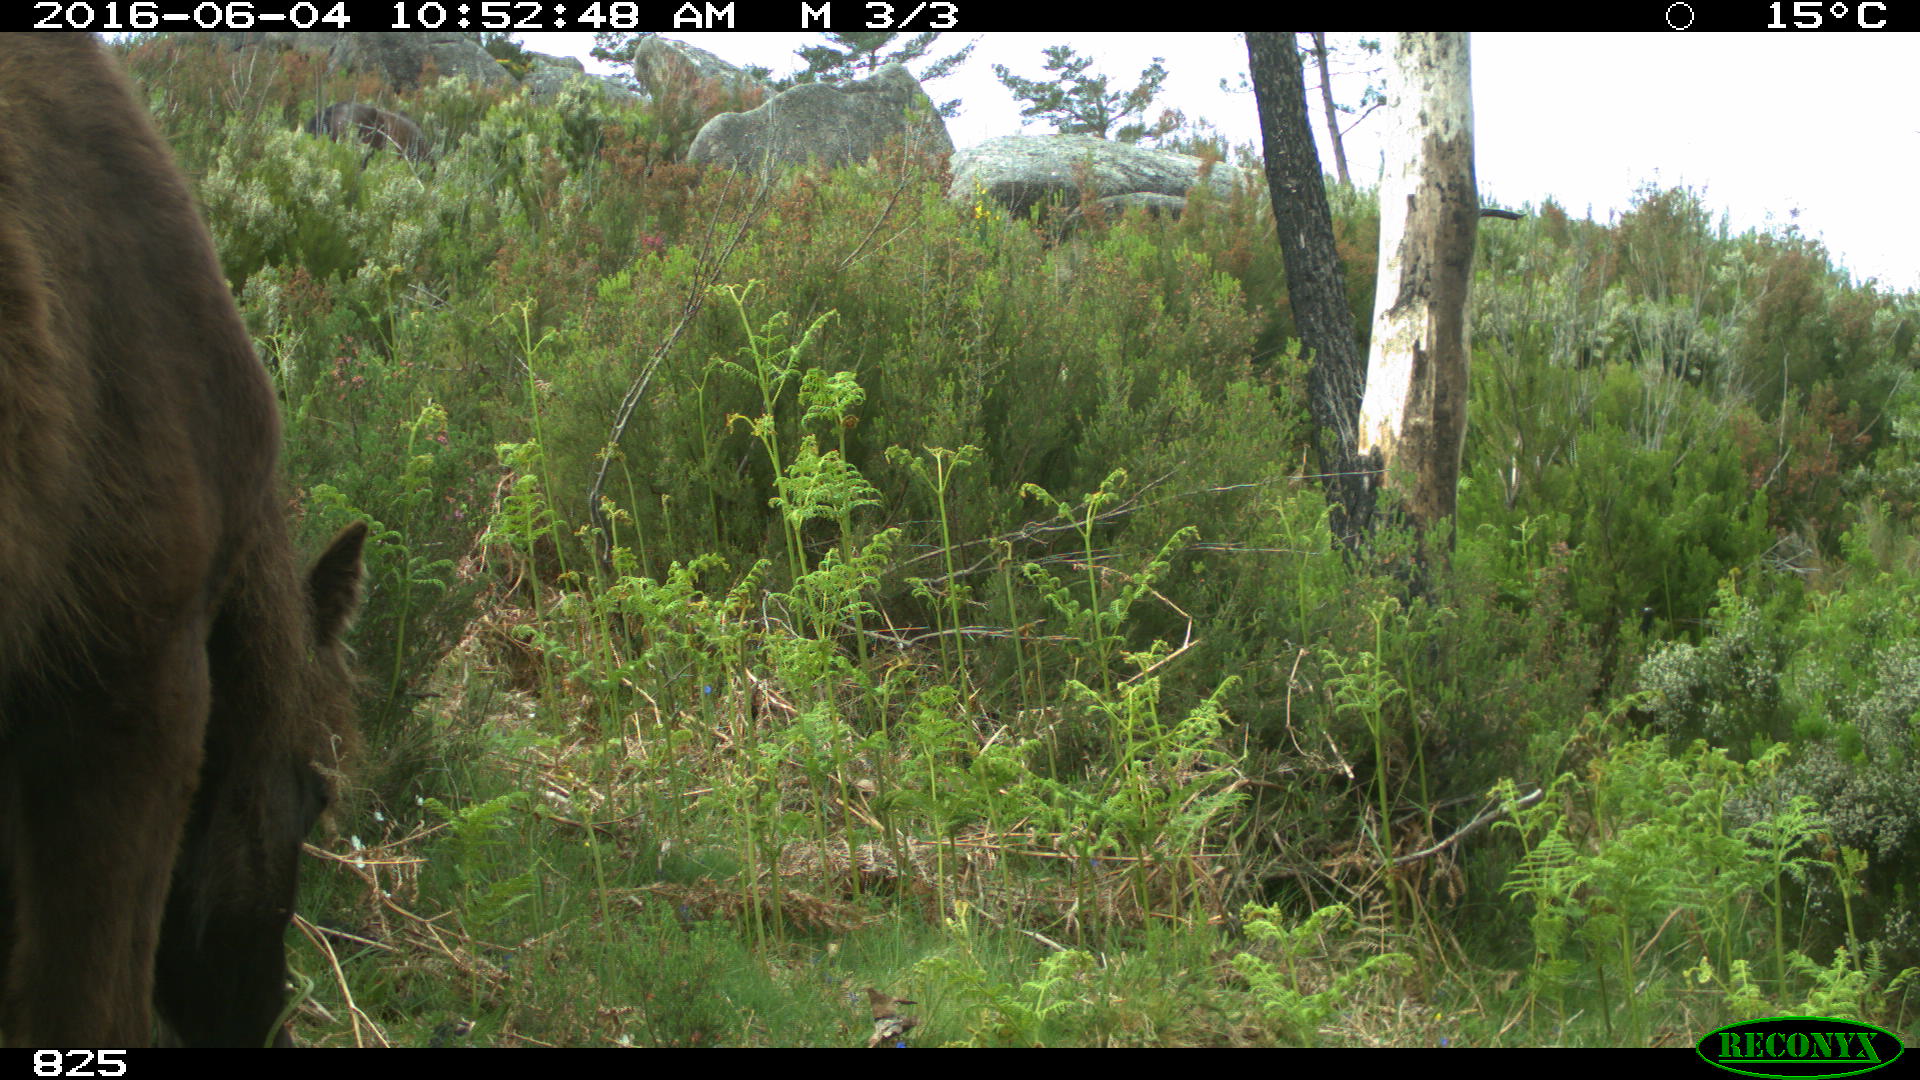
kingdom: Animalia
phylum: Chordata
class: Mammalia
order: Perissodactyla
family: Equidae
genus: Equus
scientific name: Equus caballus
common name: Horse
